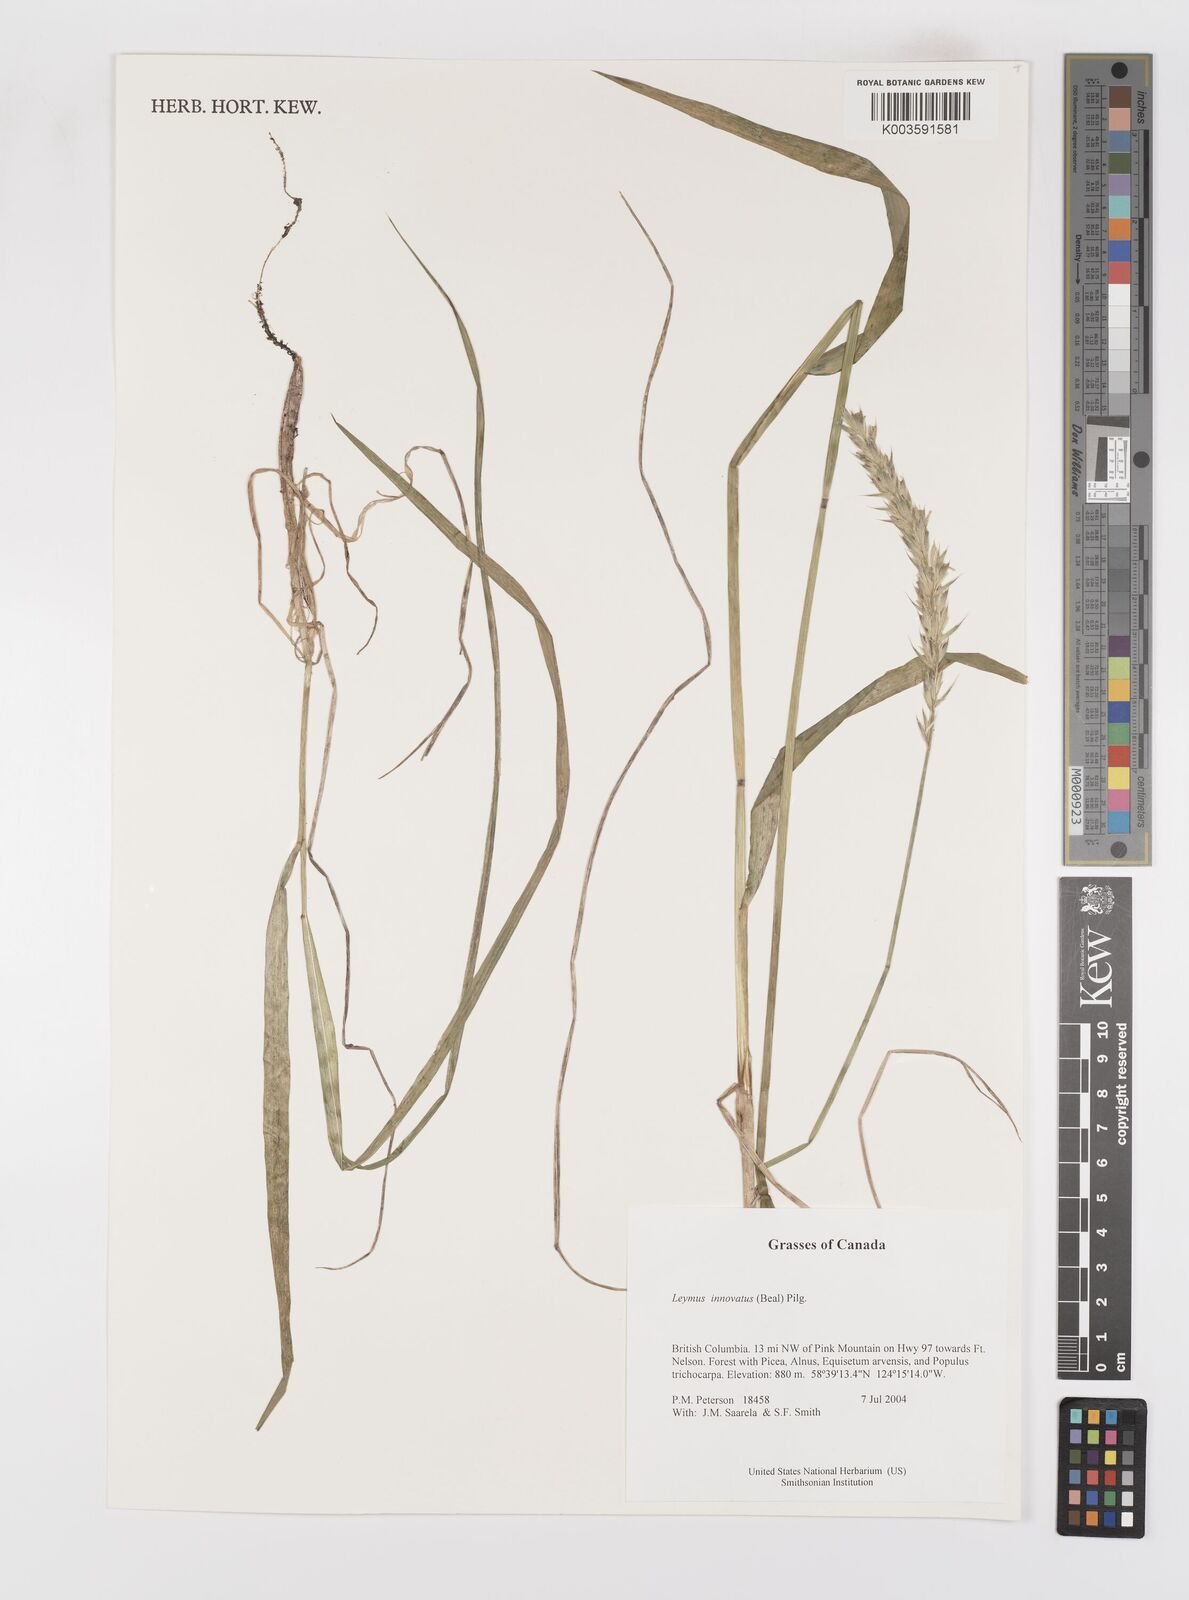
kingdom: Plantae
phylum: Tracheophyta
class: Liliopsida
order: Poales
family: Poaceae
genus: Leymus
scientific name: Leymus innovatus
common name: Boreal wild rye
